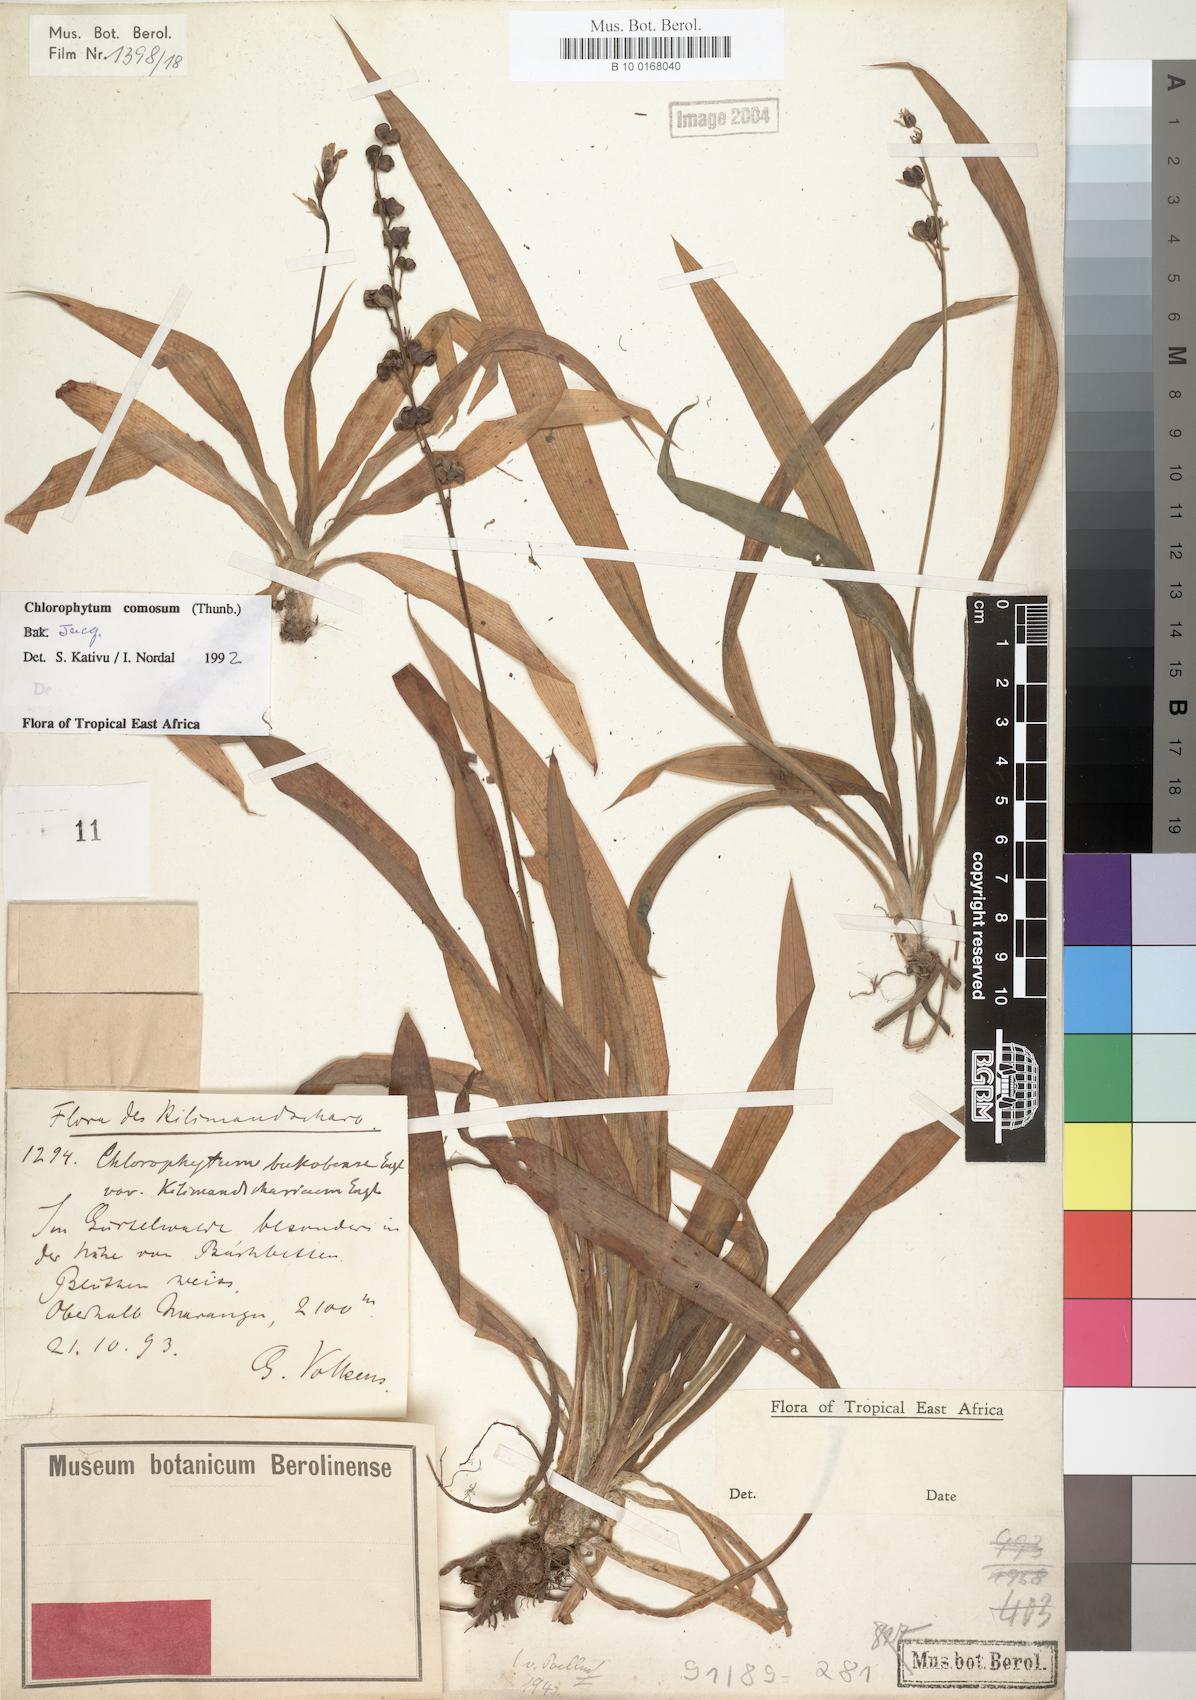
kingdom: Plantae
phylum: Tracheophyta
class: Liliopsida
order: Asparagales
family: Asparagaceae
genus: Chlorophytum
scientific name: Chlorophytum comosum
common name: Spider plant
